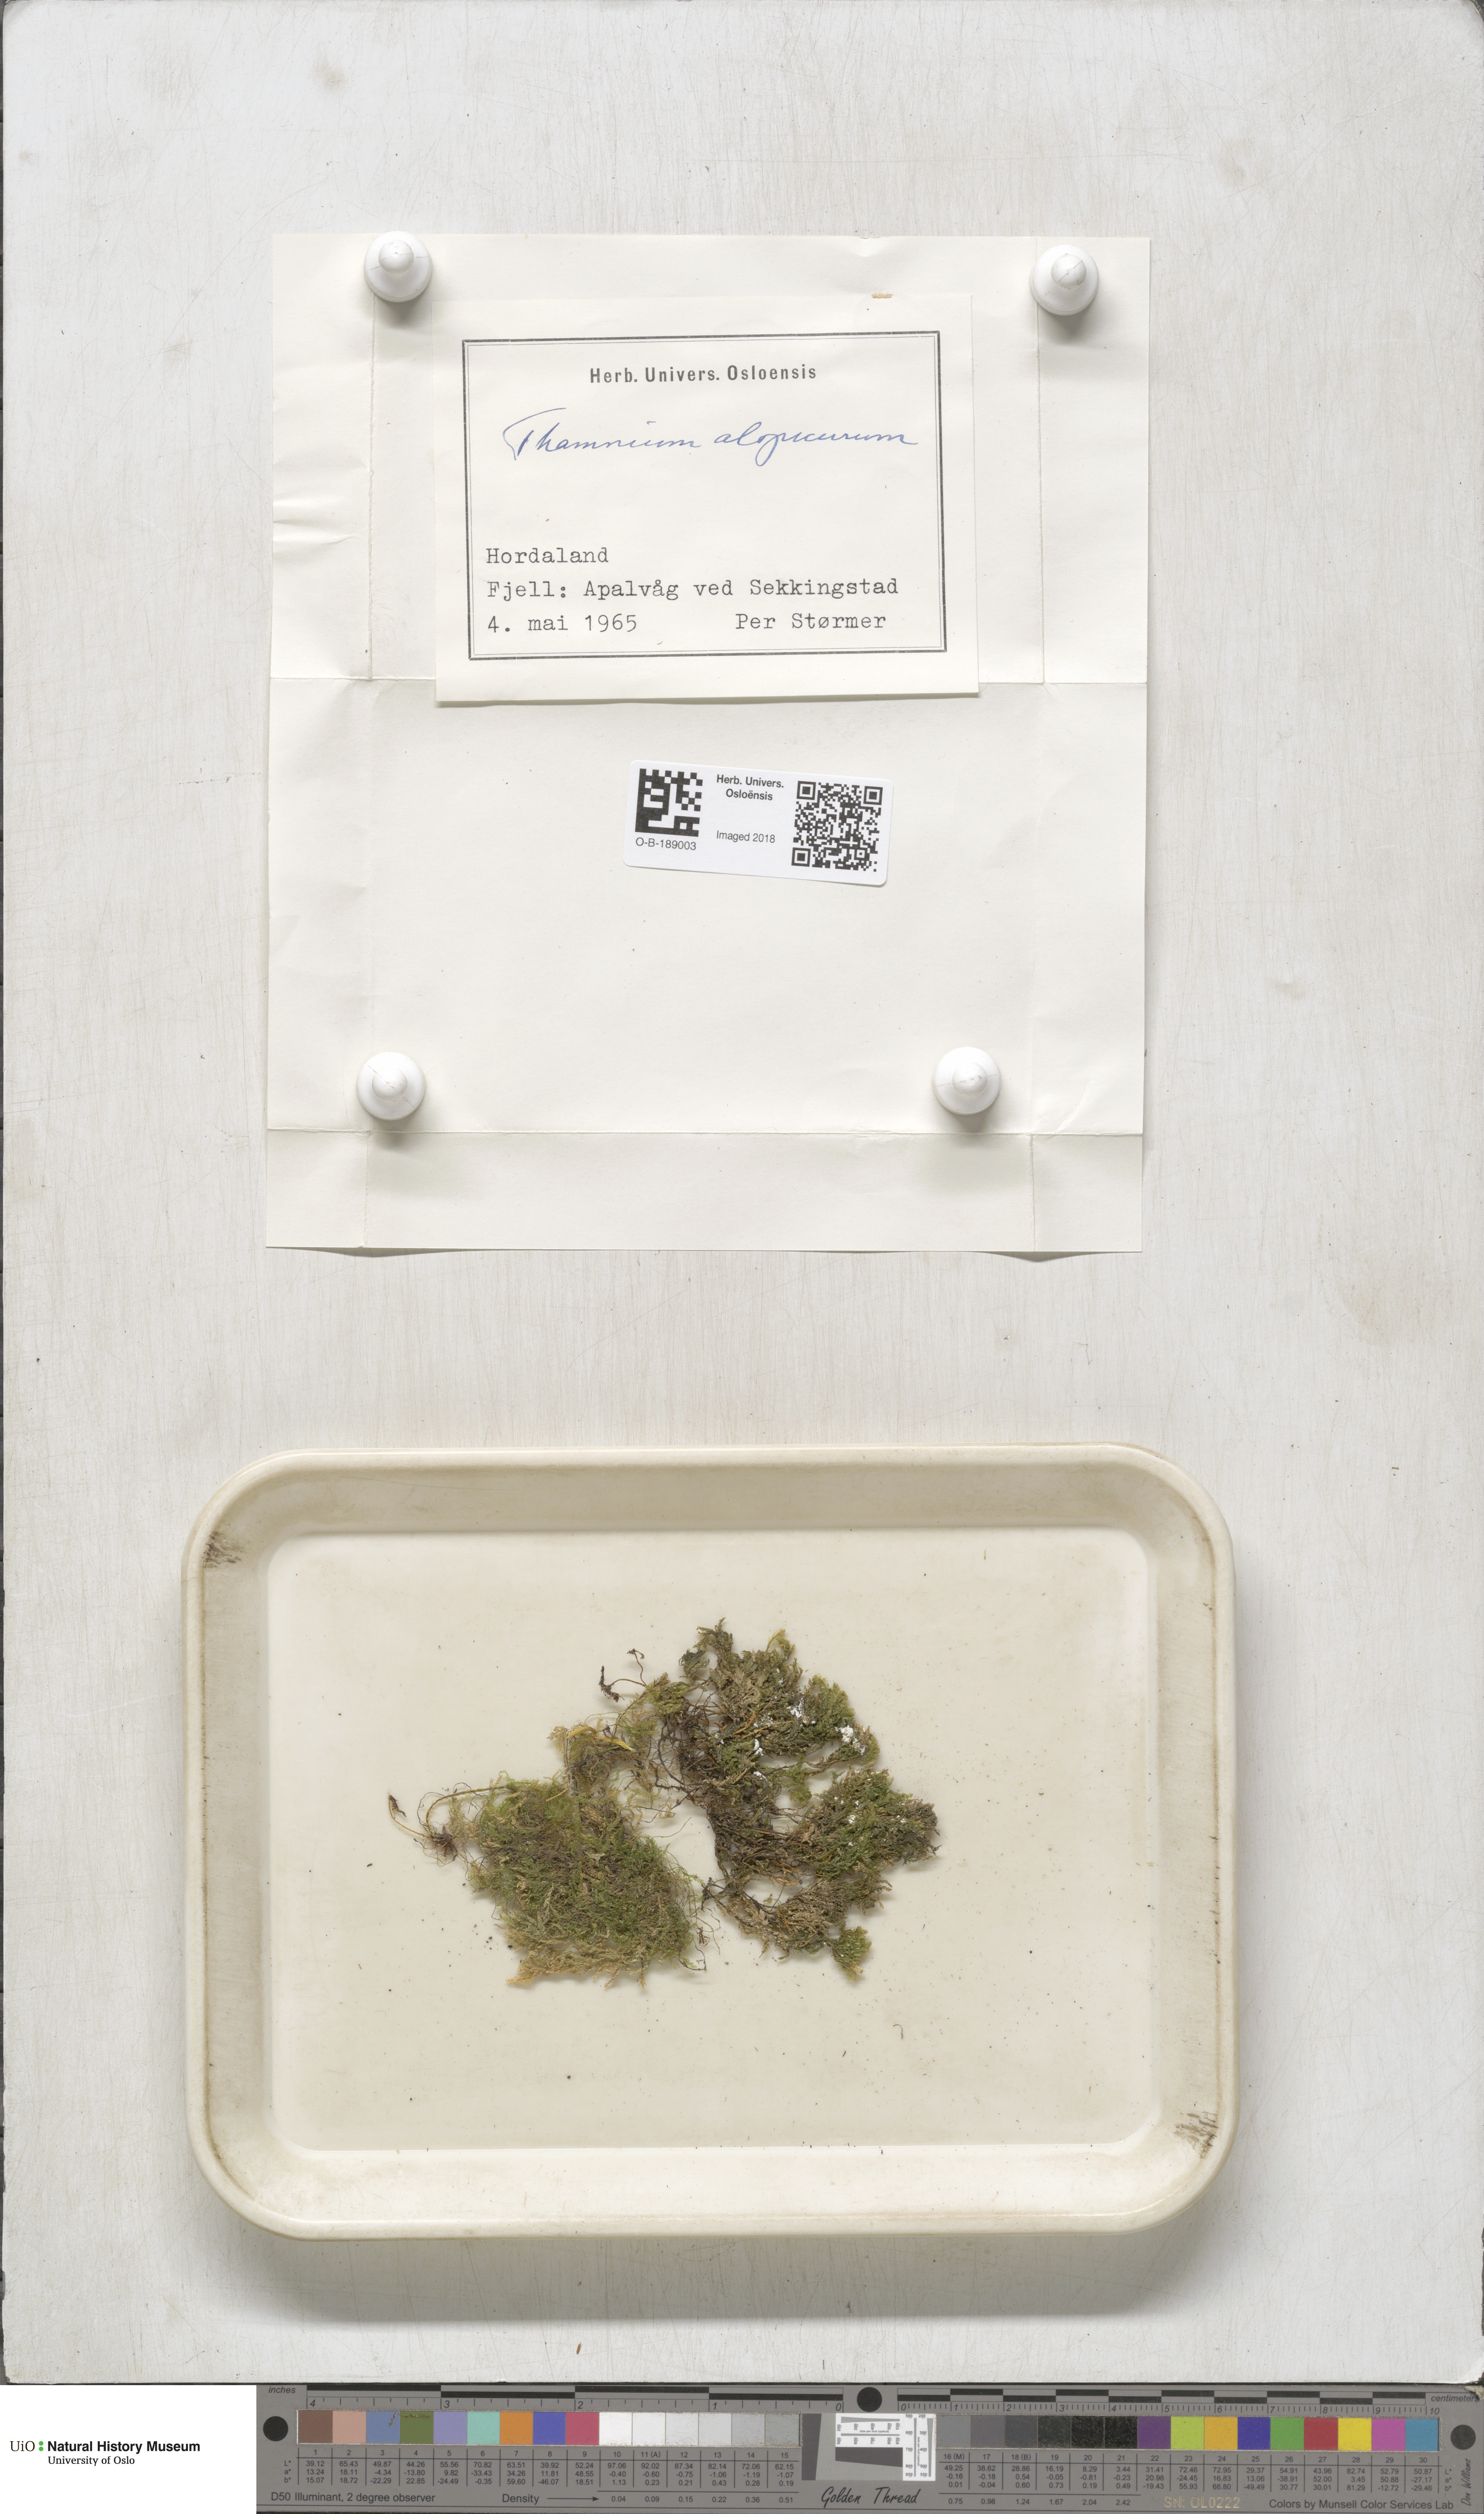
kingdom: Plantae
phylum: Bryophyta
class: Bryopsida
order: Hypnales
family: Neckeraceae
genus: Thamnobryum
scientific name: Thamnobryum alopecurum
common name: Fox-tail feather-moss
